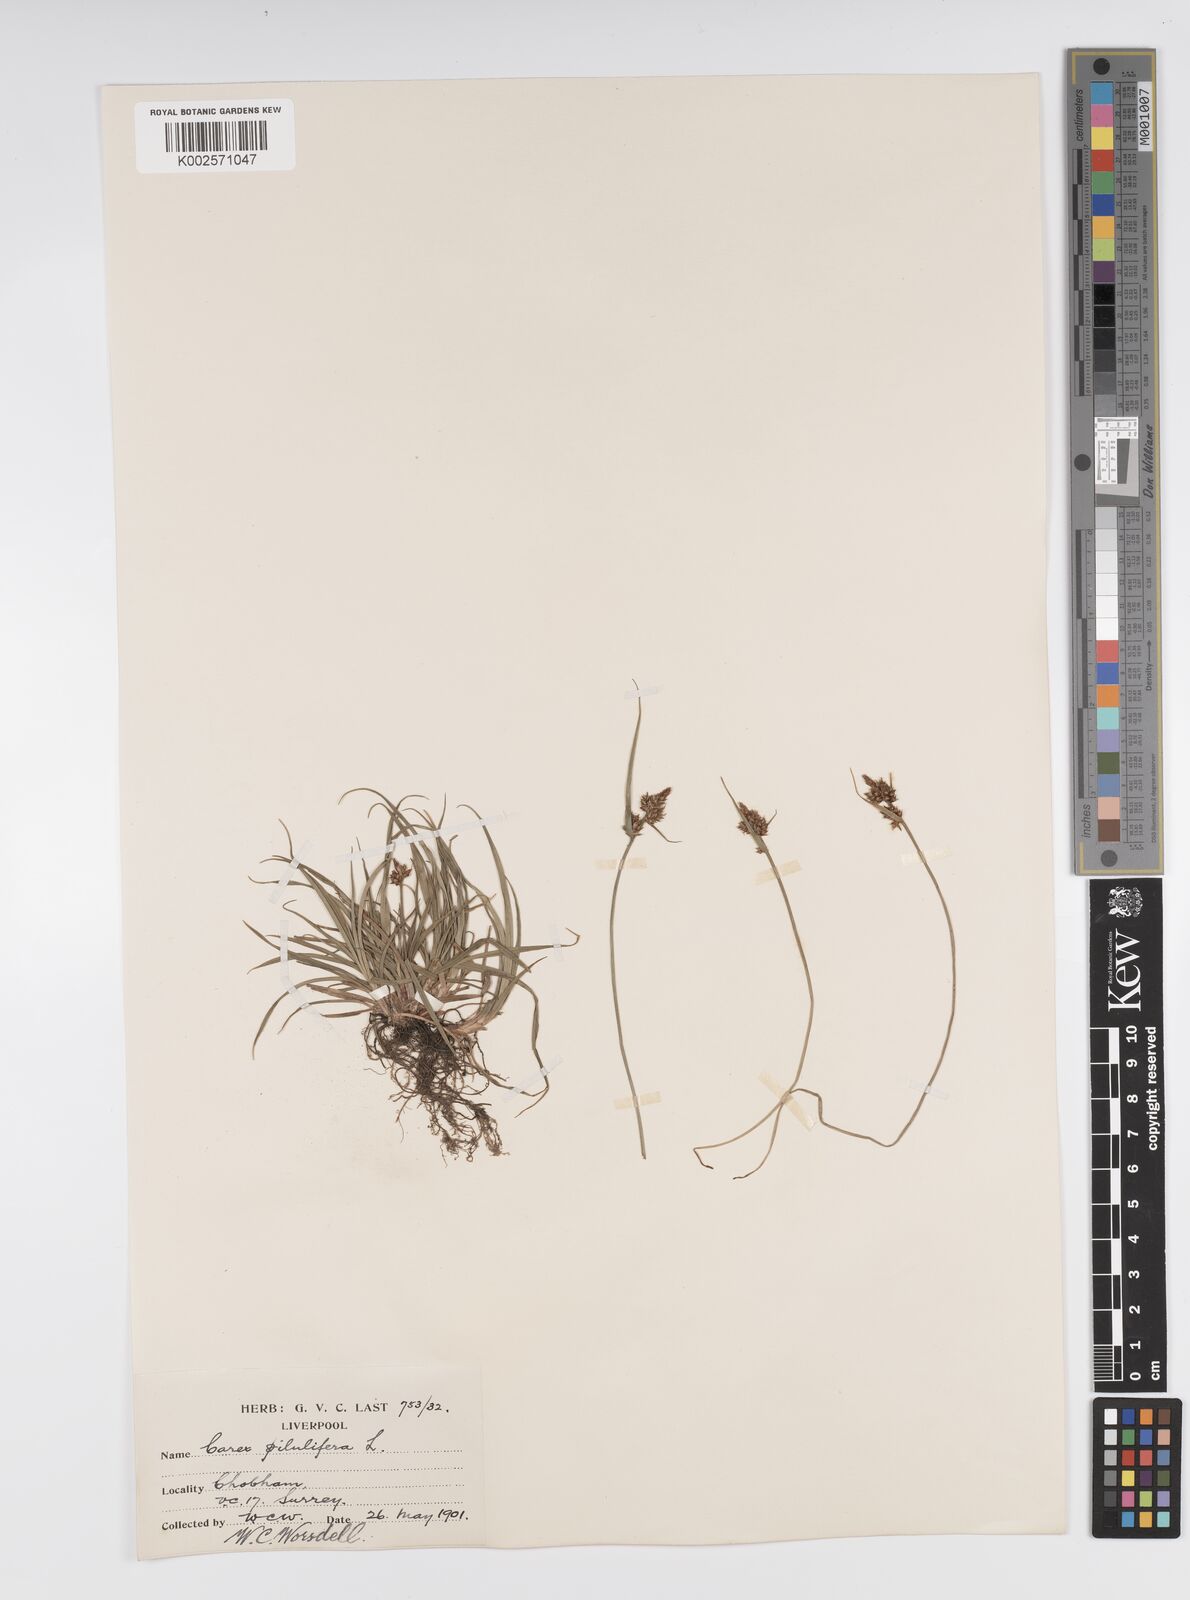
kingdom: Plantae
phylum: Tracheophyta
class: Liliopsida
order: Poales
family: Cyperaceae
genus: Carex
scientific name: Carex pilulifera
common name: Pill sedge
